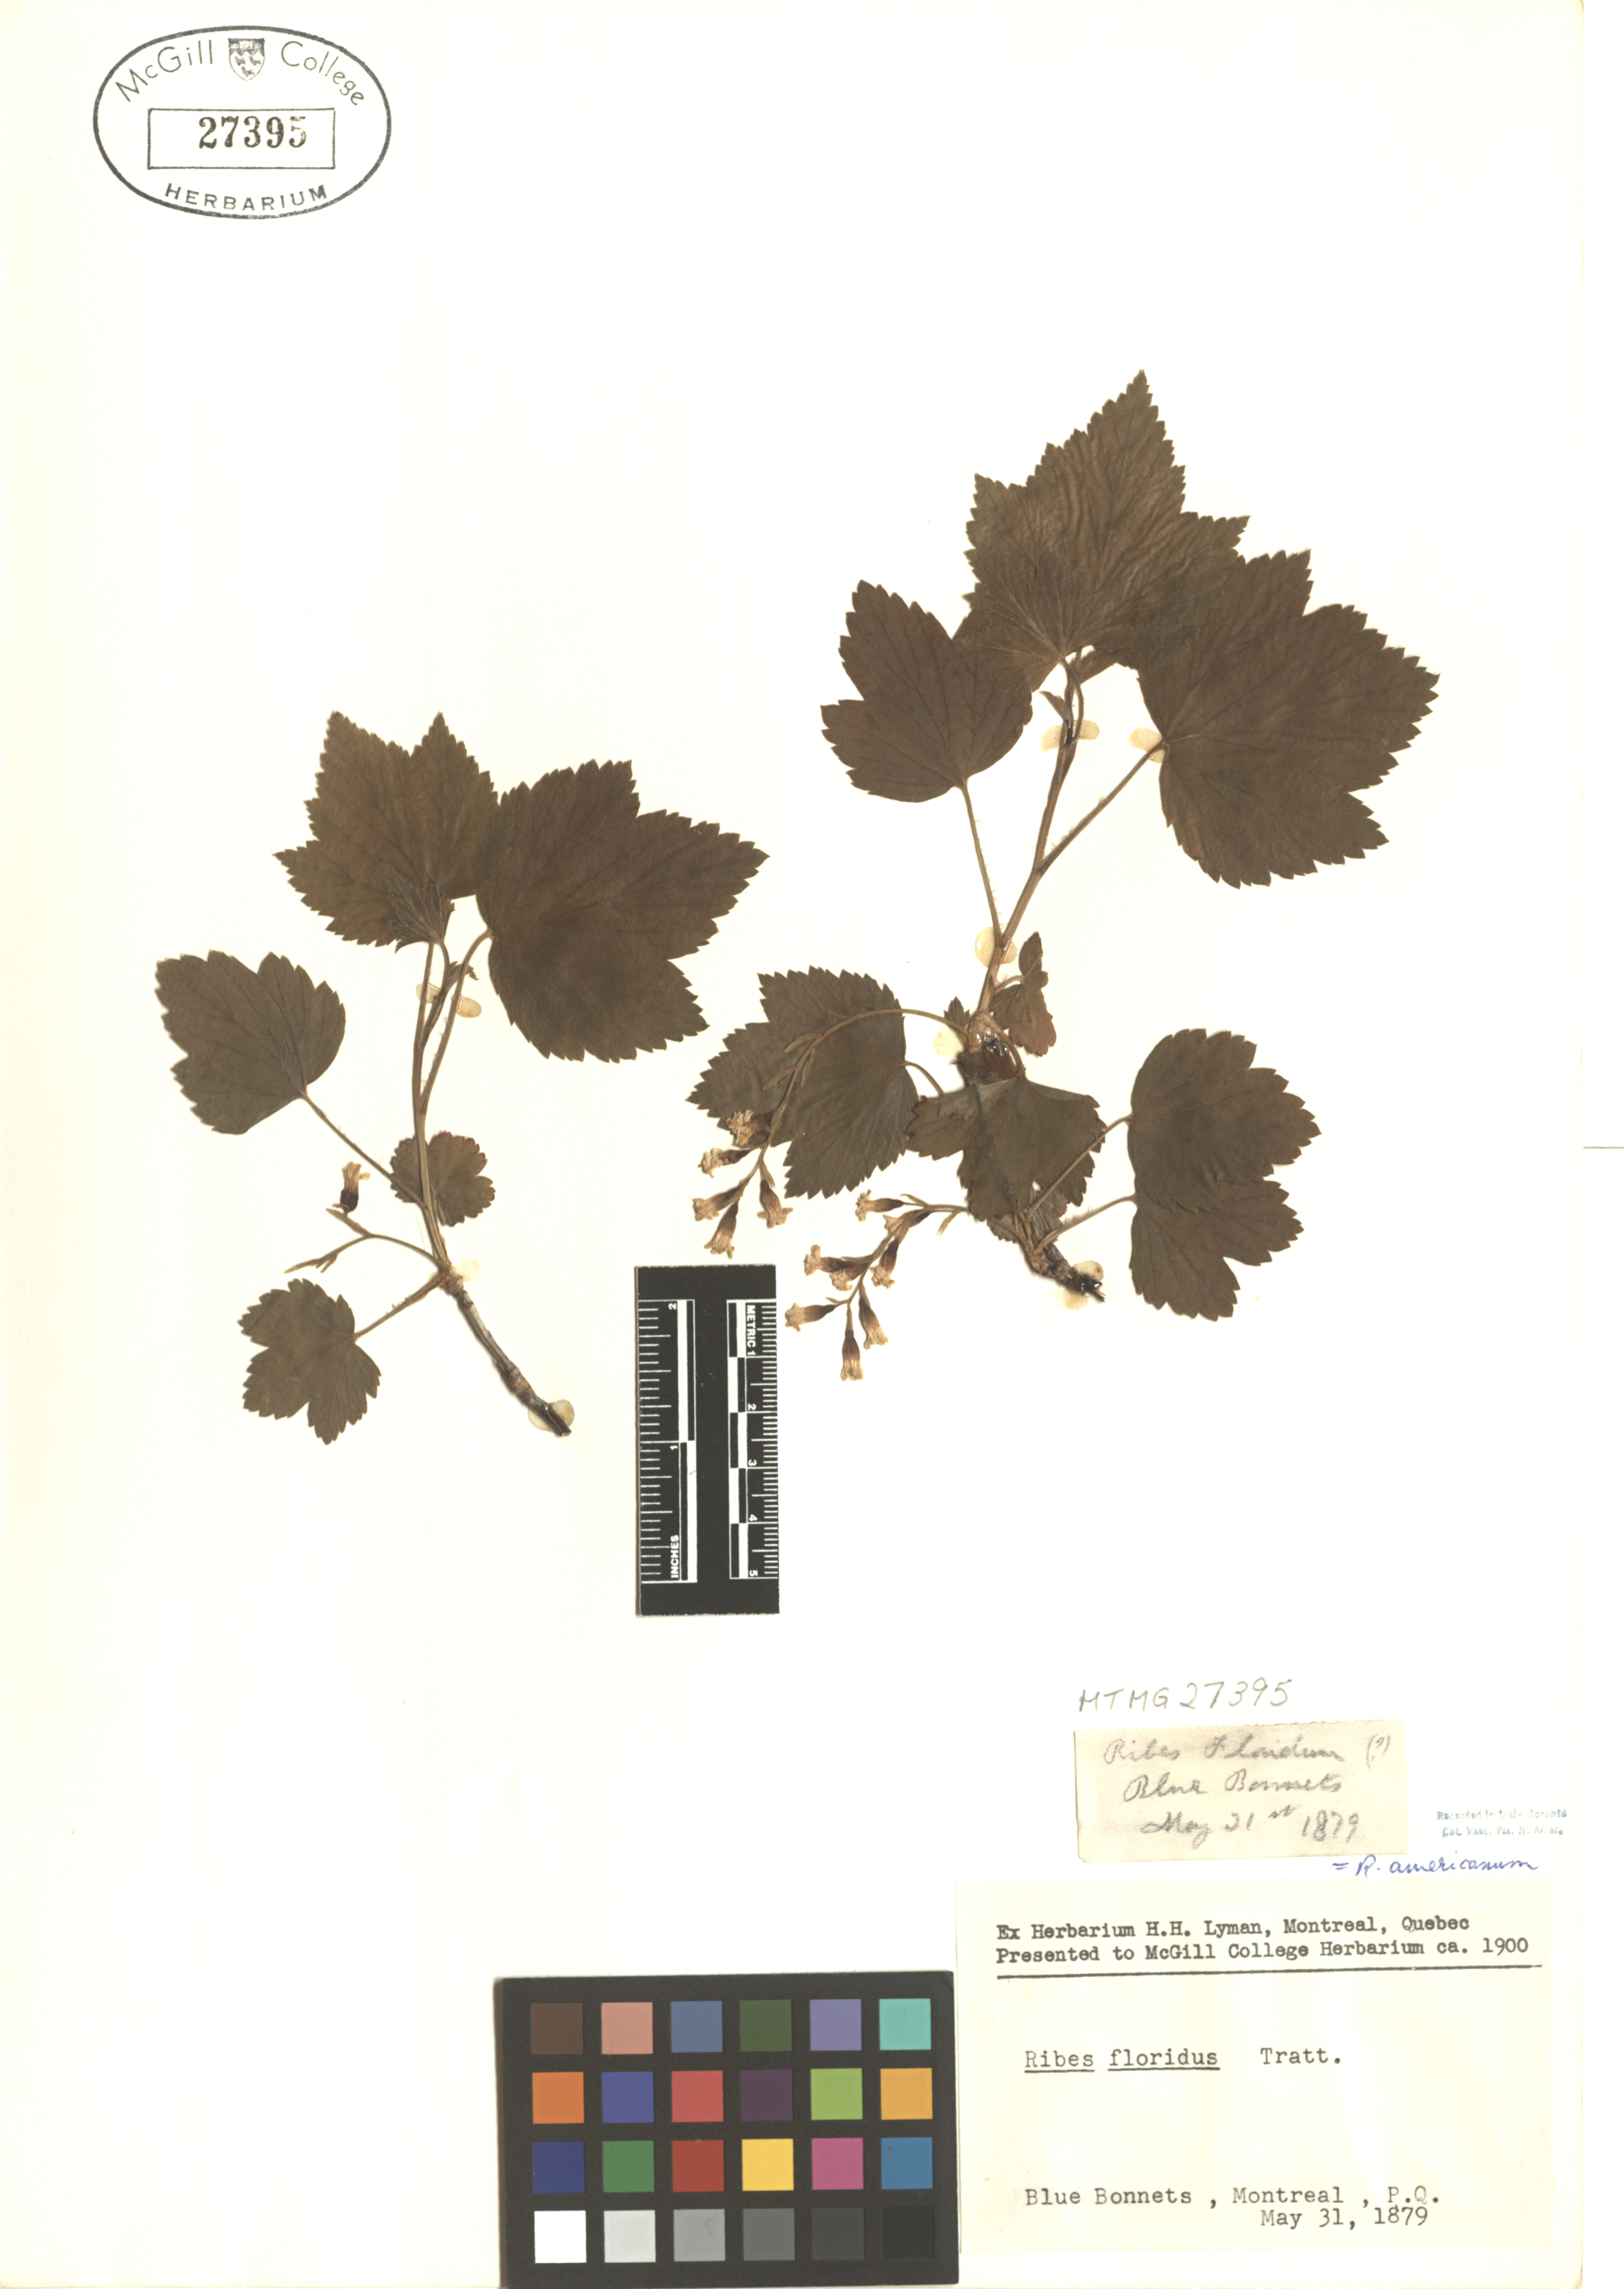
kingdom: Plantae
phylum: Tracheophyta
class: Magnoliopsida
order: Saxifragales
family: Grossulariaceae
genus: Ribes
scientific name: Ribes americanum
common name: American black currant
